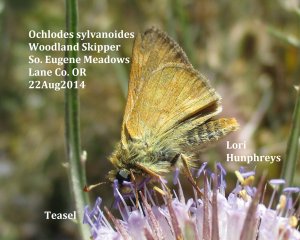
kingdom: Animalia
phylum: Arthropoda
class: Insecta
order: Lepidoptera
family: Hesperiidae
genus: Ochlodes
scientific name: Ochlodes sylvanoides
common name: Woodland Skipper
